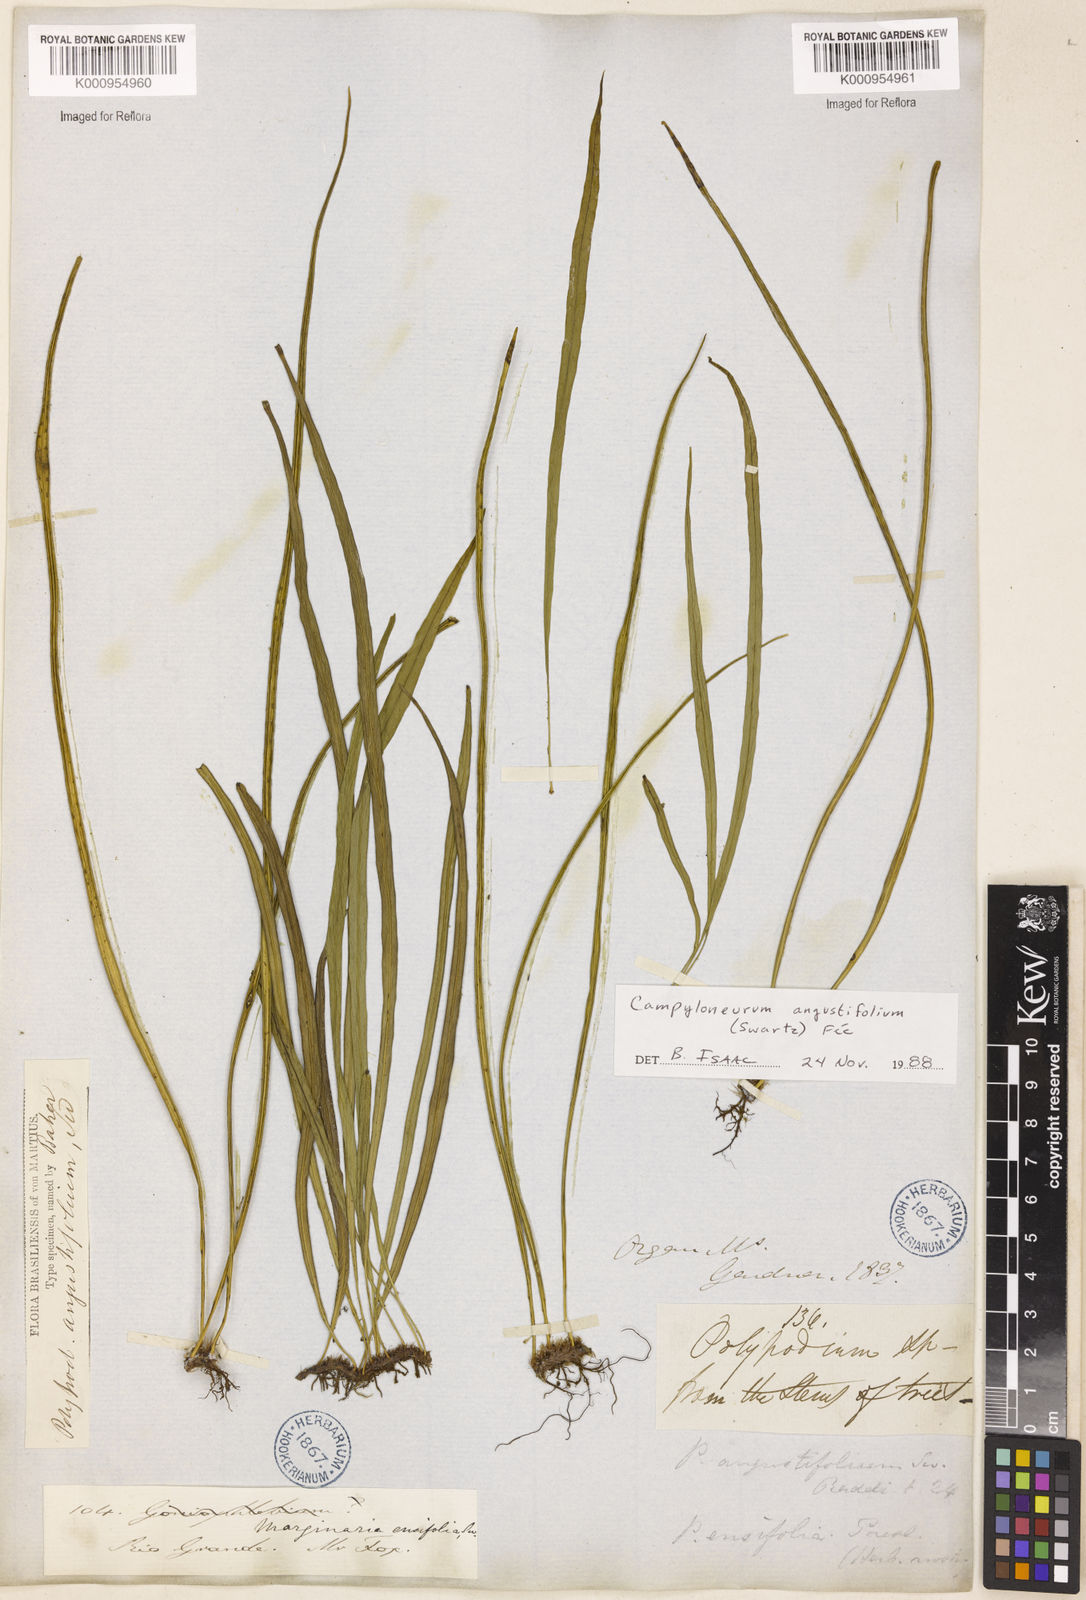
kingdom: Plantae
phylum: Tracheophyta
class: Polypodiopsida
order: Polypodiales
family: Polypodiaceae
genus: Campyloneurum
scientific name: Campyloneurum
